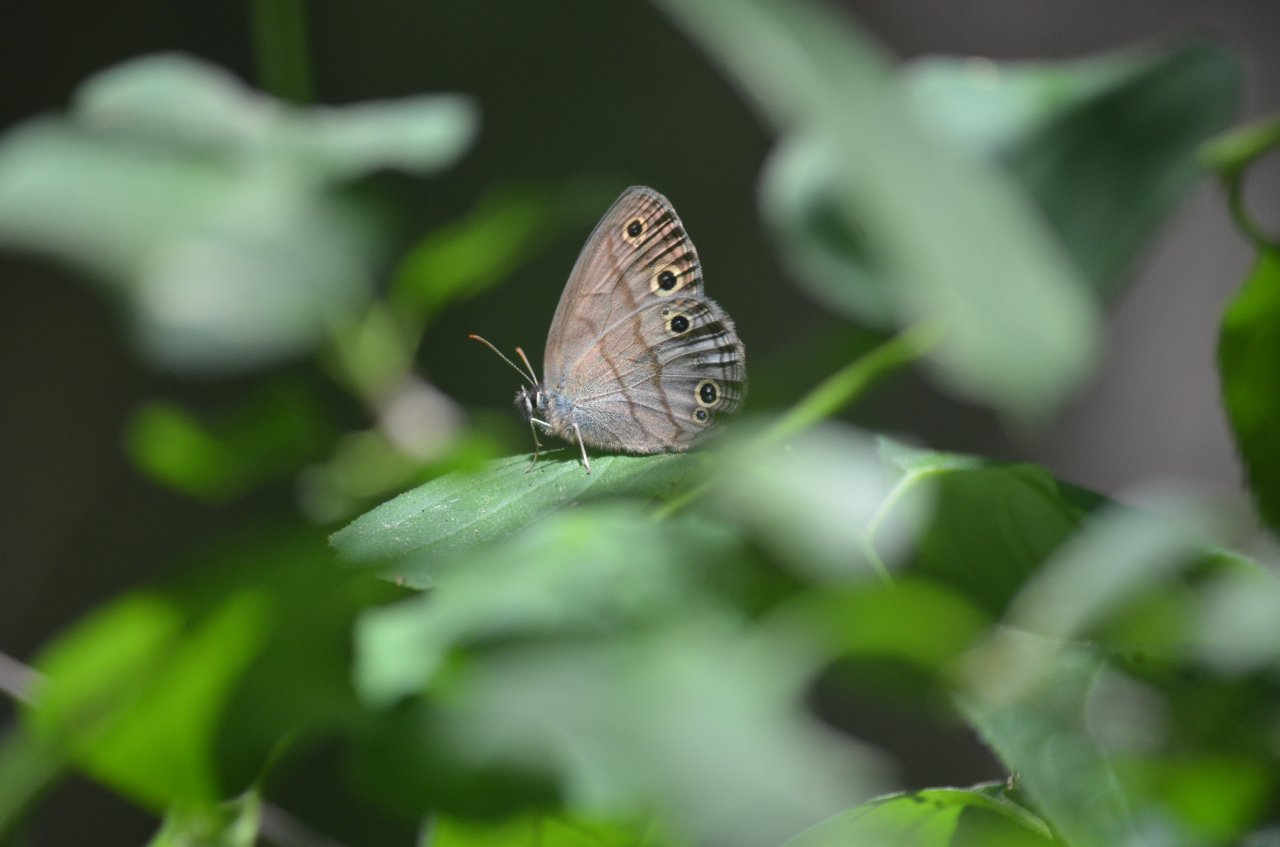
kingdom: Animalia
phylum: Arthropoda
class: Insecta
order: Lepidoptera
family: Nymphalidae
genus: Euptychia
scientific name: Euptychia cymela
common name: Little Wood Satyr
